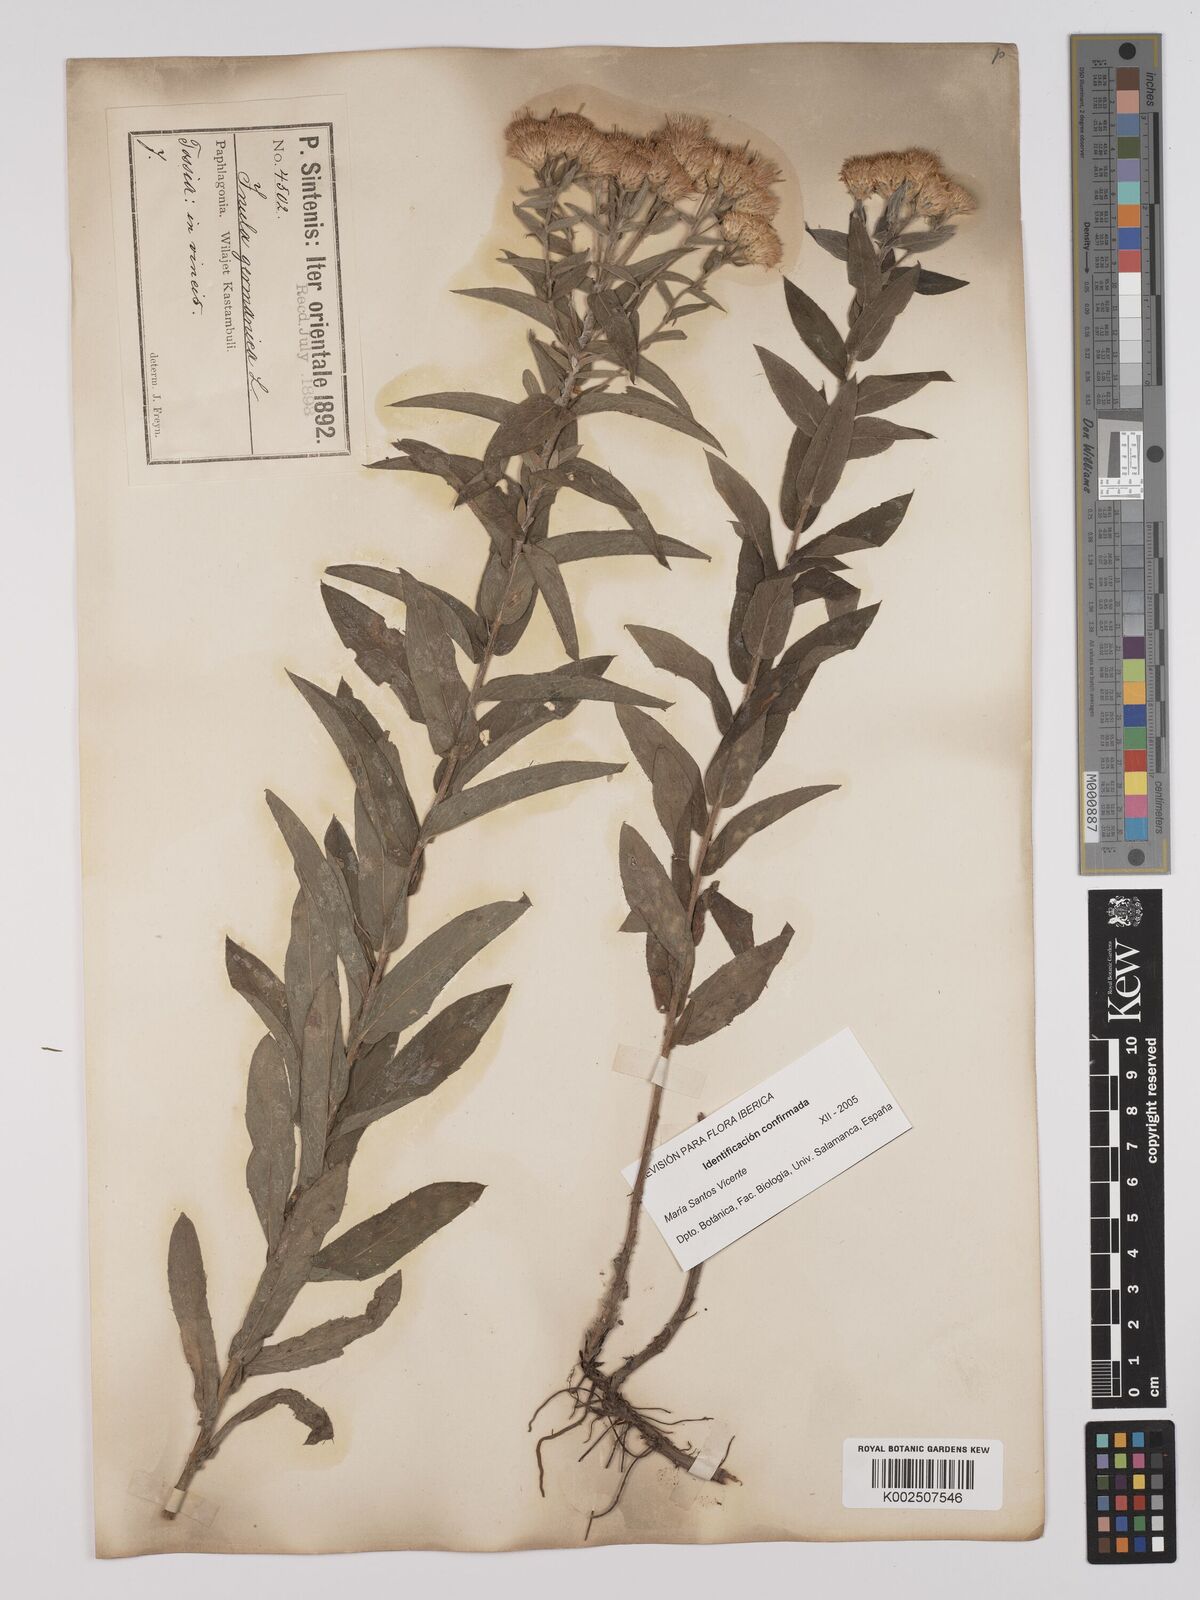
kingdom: Plantae
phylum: Tracheophyta
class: Magnoliopsida
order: Asterales
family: Asteraceae
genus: Pentanema
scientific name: Pentanema ensifolium
